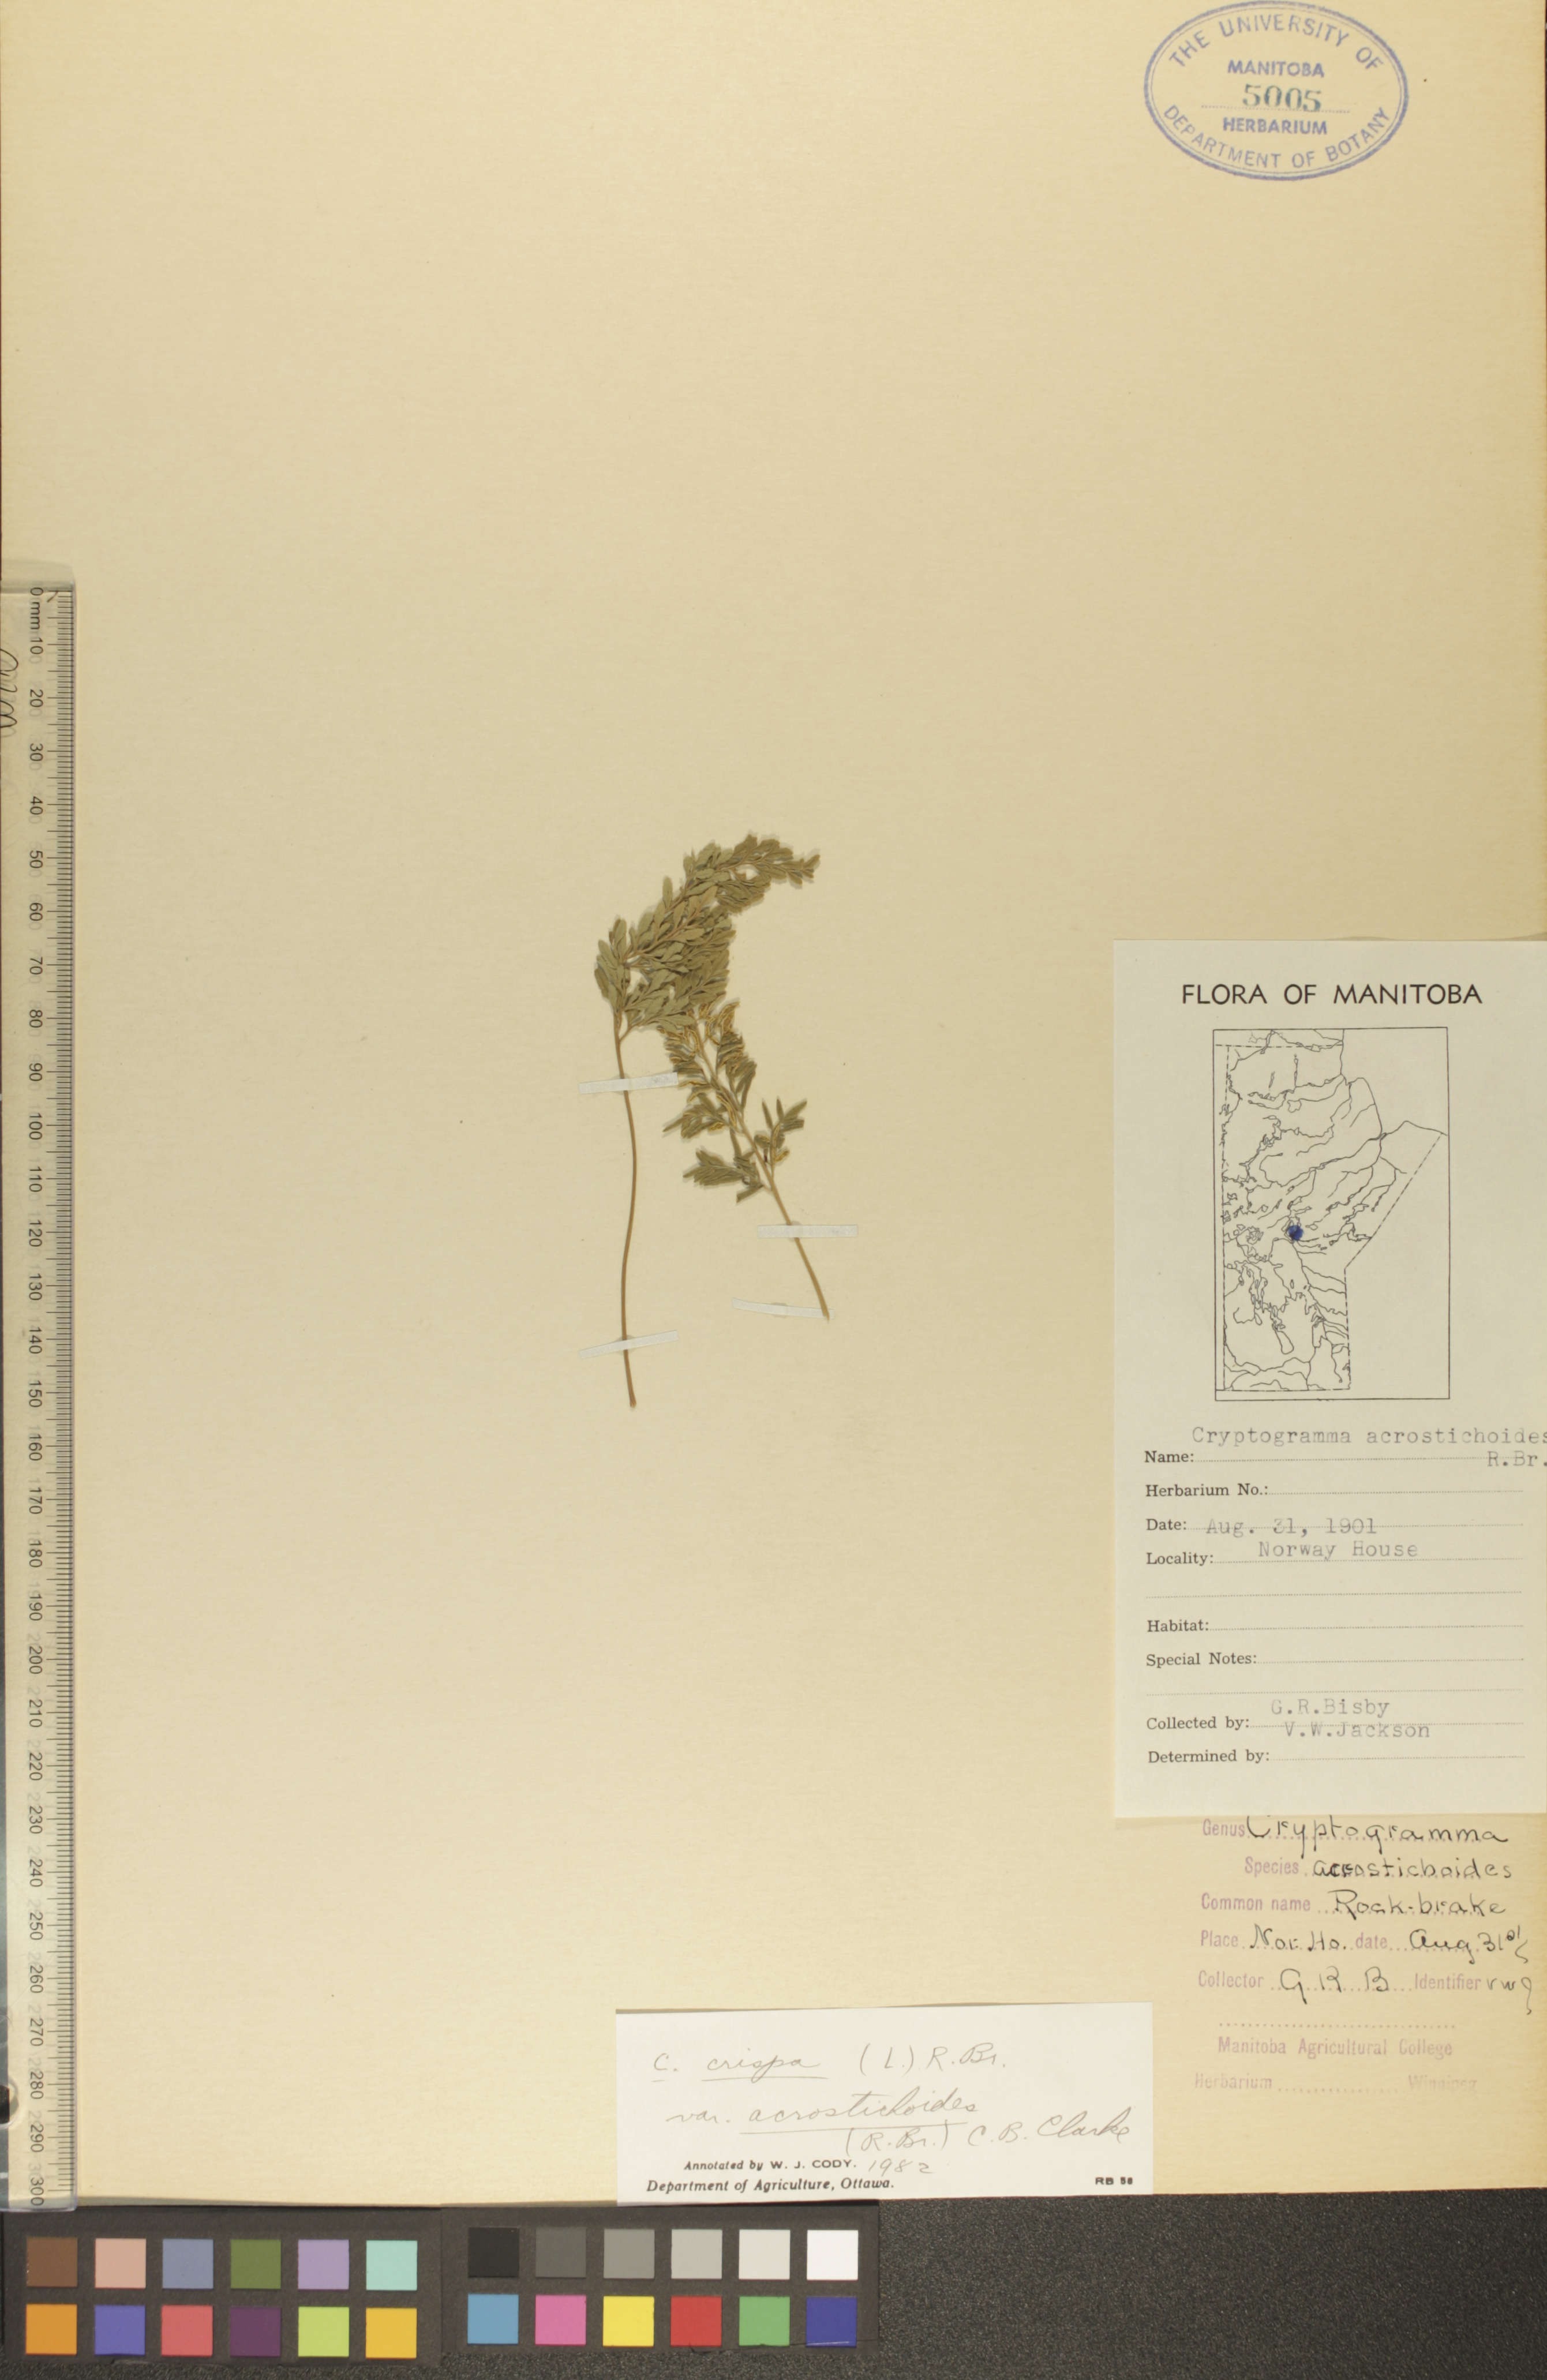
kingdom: Plantae
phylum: Tracheophyta
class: Polypodiopsida
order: Polypodiales
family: Pteridaceae
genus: Cryptogramma
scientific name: Cryptogramma acrostichoides
